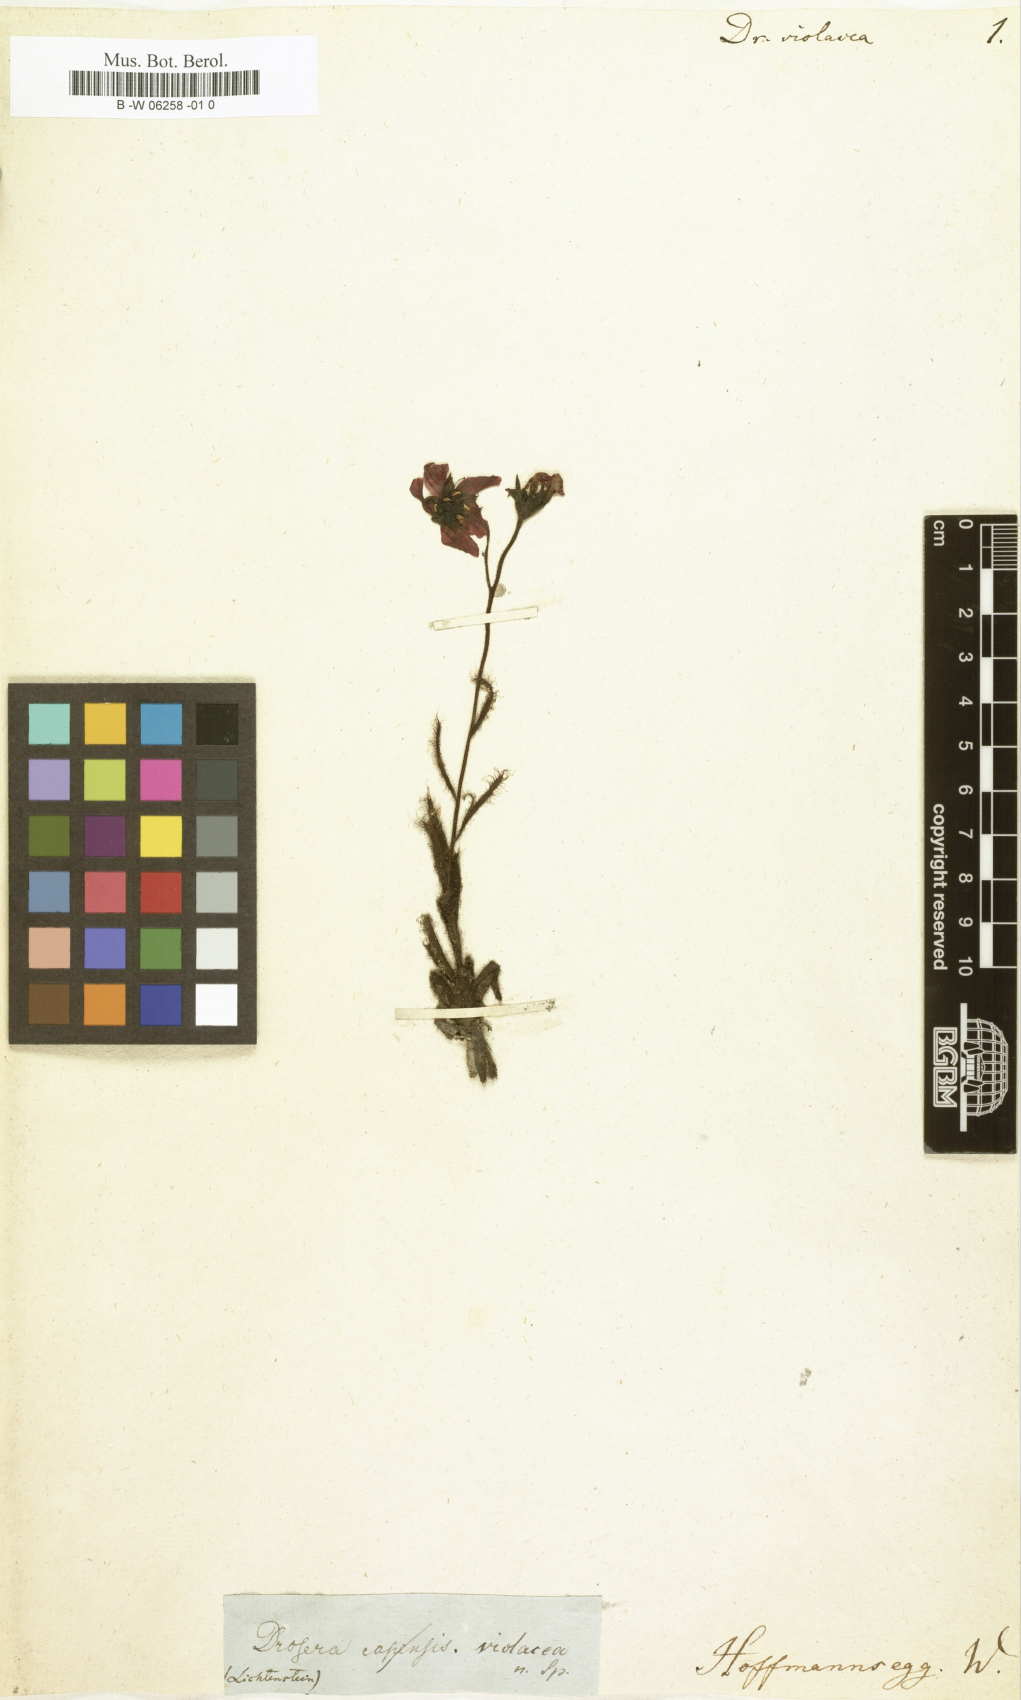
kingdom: Plantae
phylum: Tracheophyta
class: Magnoliopsida
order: Caryophyllales
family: Droseraceae
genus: Drosera
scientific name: Drosera cistiflora
